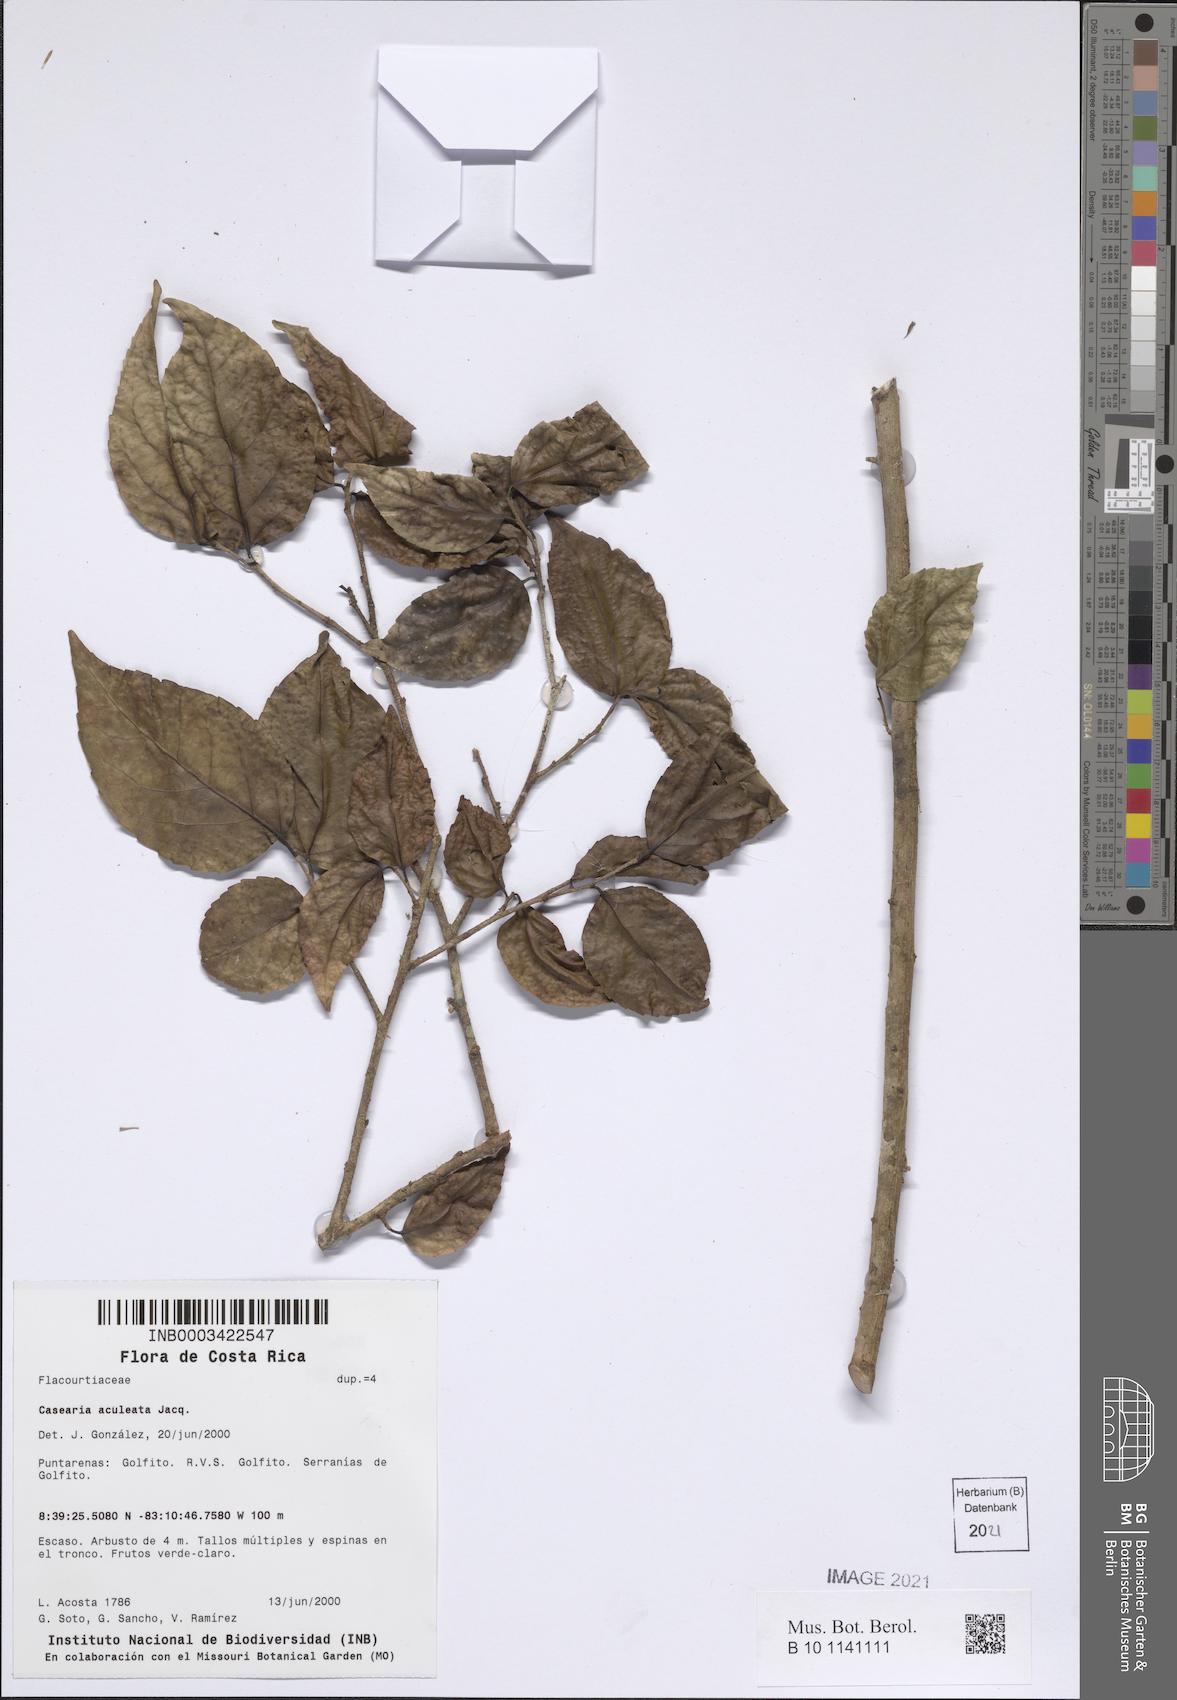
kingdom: Plantae
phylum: Tracheophyta
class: Magnoliopsida
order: Malpighiales
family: Salicaceae
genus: Casearia
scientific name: Casearia aculeata
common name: Cockspur
